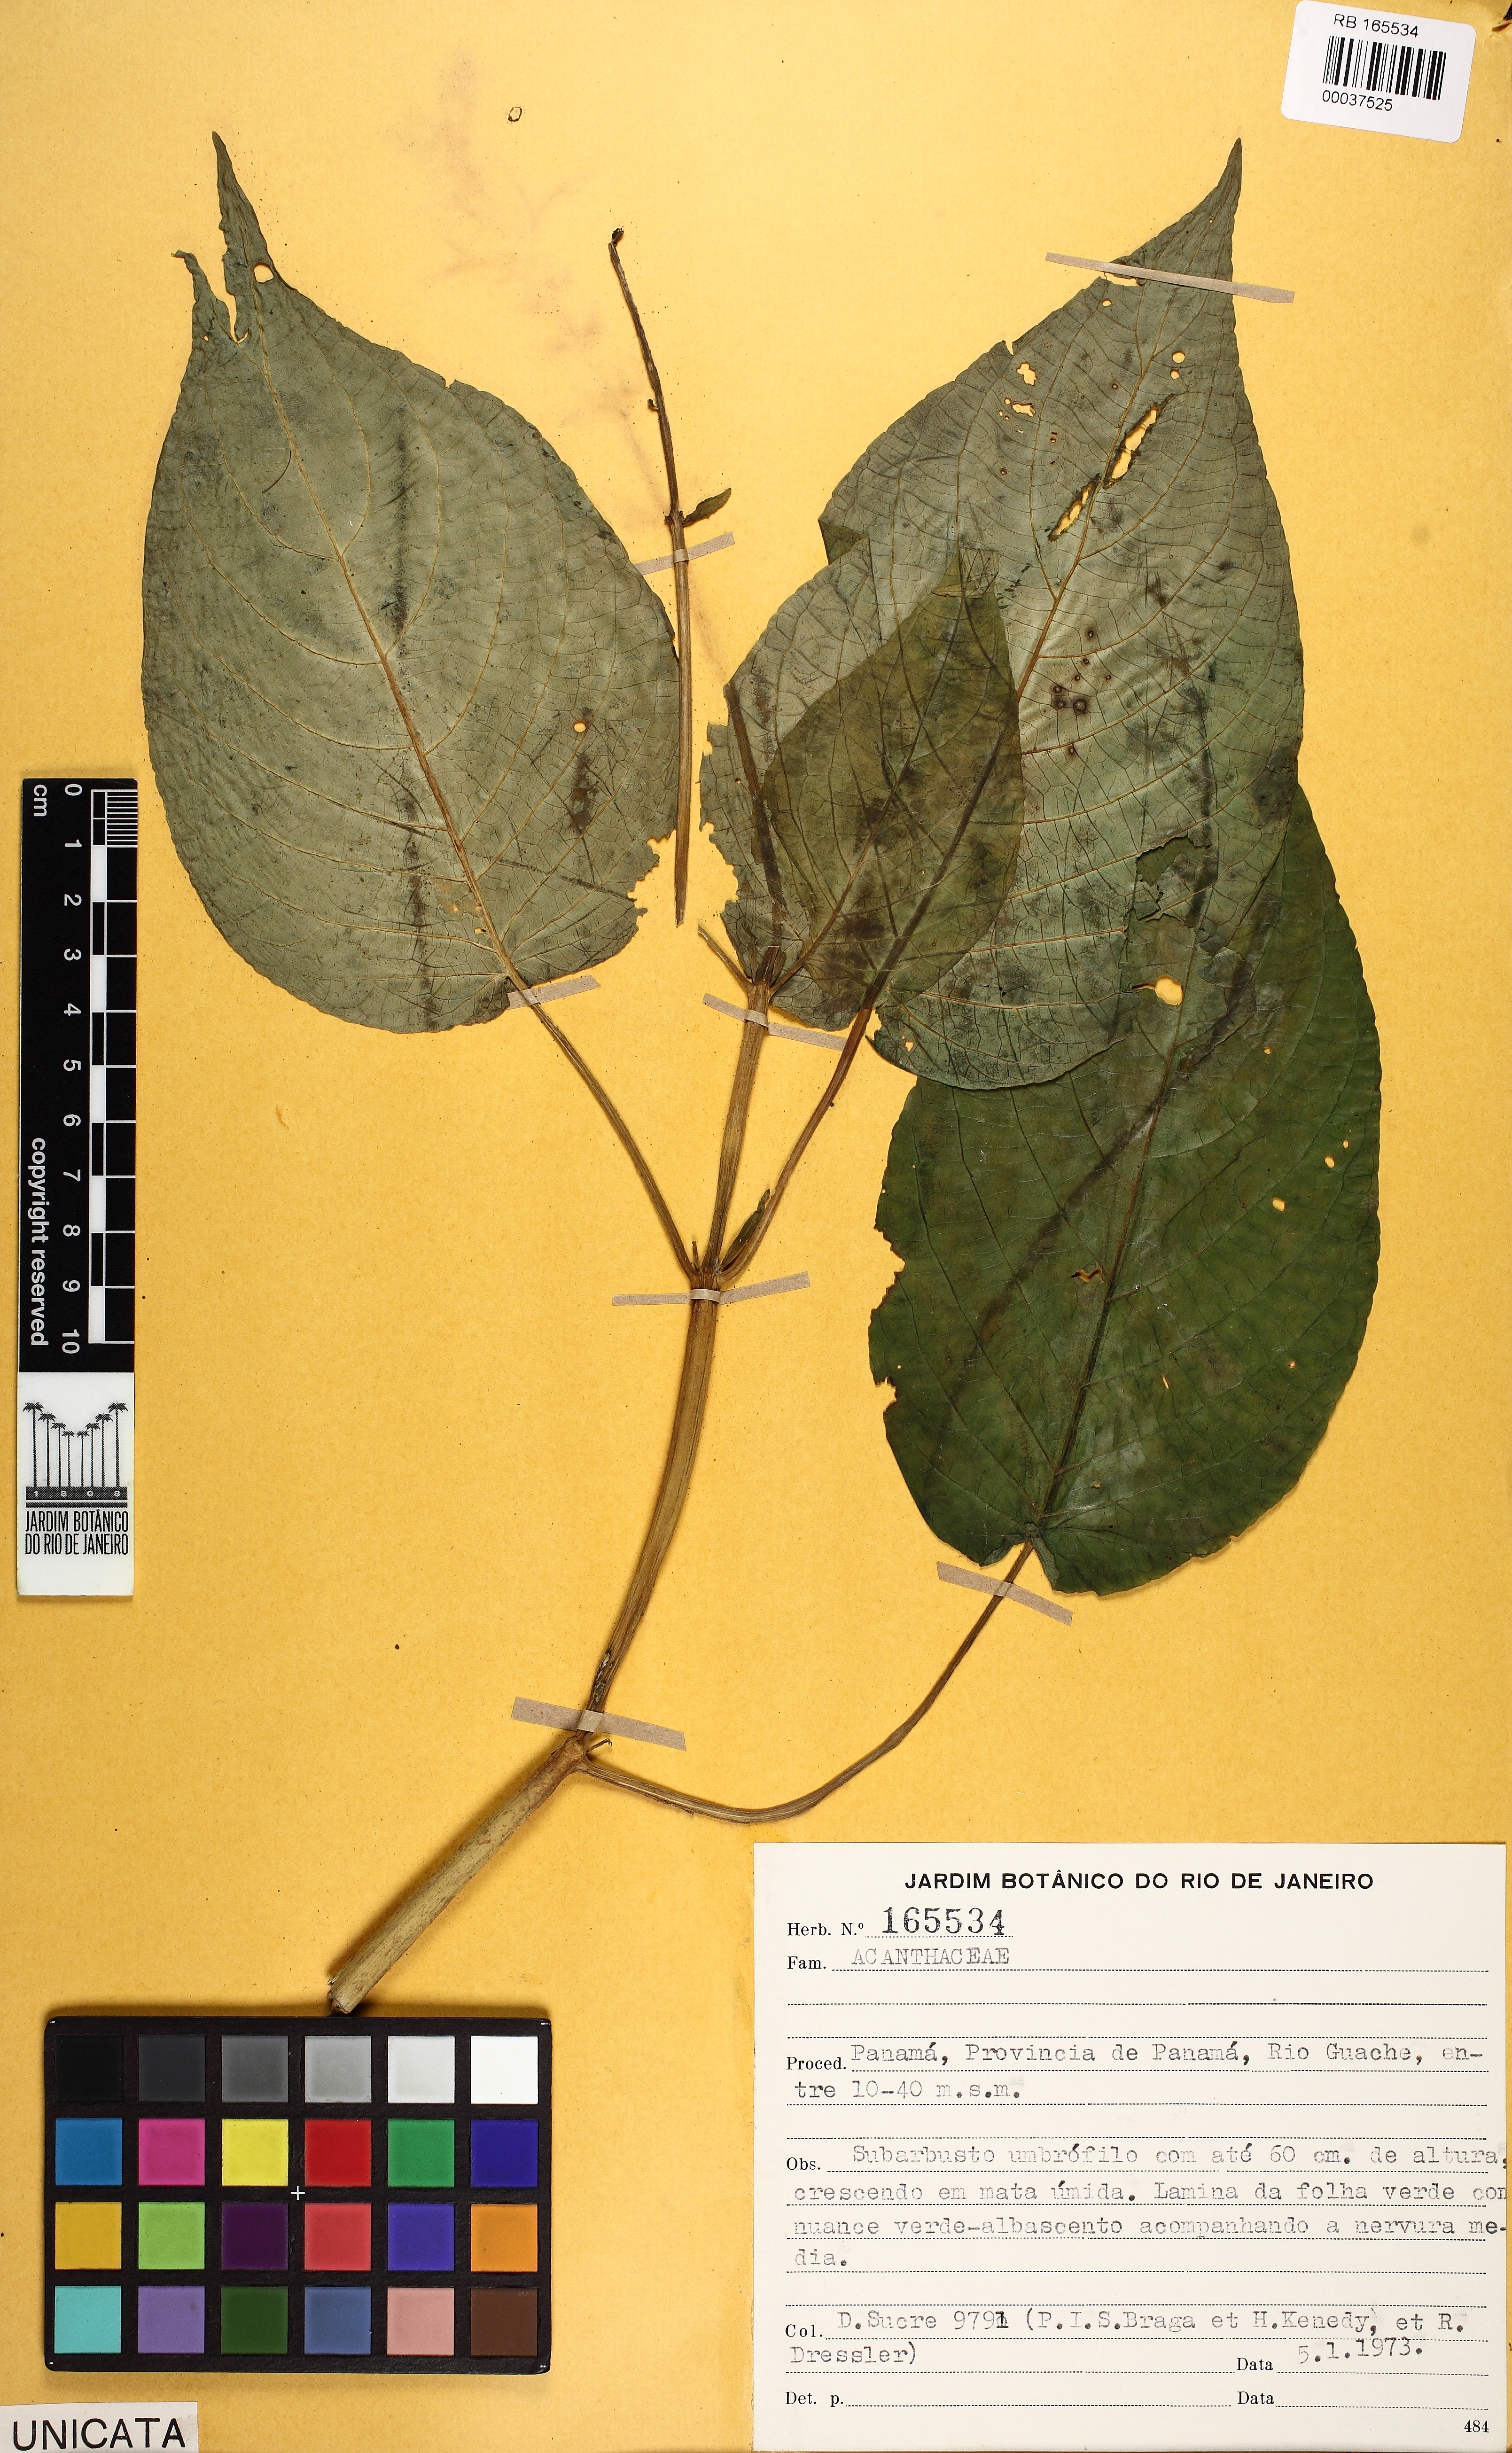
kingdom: Plantae
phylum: Tracheophyta
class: Magnoliopsida
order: Lamiales
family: Acanthaceae
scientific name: Acanthaceae
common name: Acanthaceae
